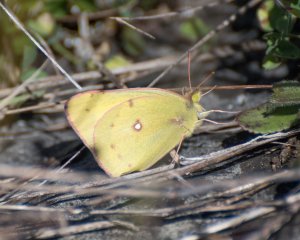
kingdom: Animalia
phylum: Arthropoda
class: Insecta
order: Lepidoptera
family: Pieridae
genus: Colias
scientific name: Colias eurytheme
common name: Orange Sulphur
